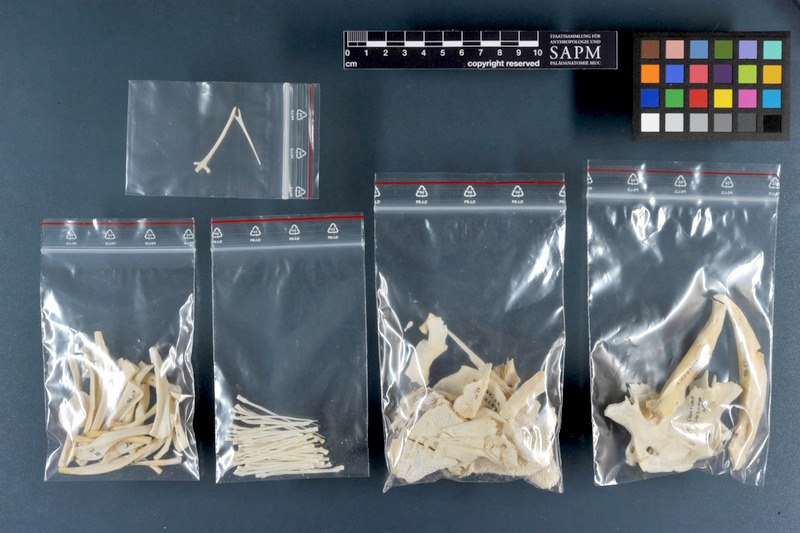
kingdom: Animalia
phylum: Chordata
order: Siluriformes
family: Clariidae
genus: Clarias
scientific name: Clarias anguillaris
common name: Catfish
